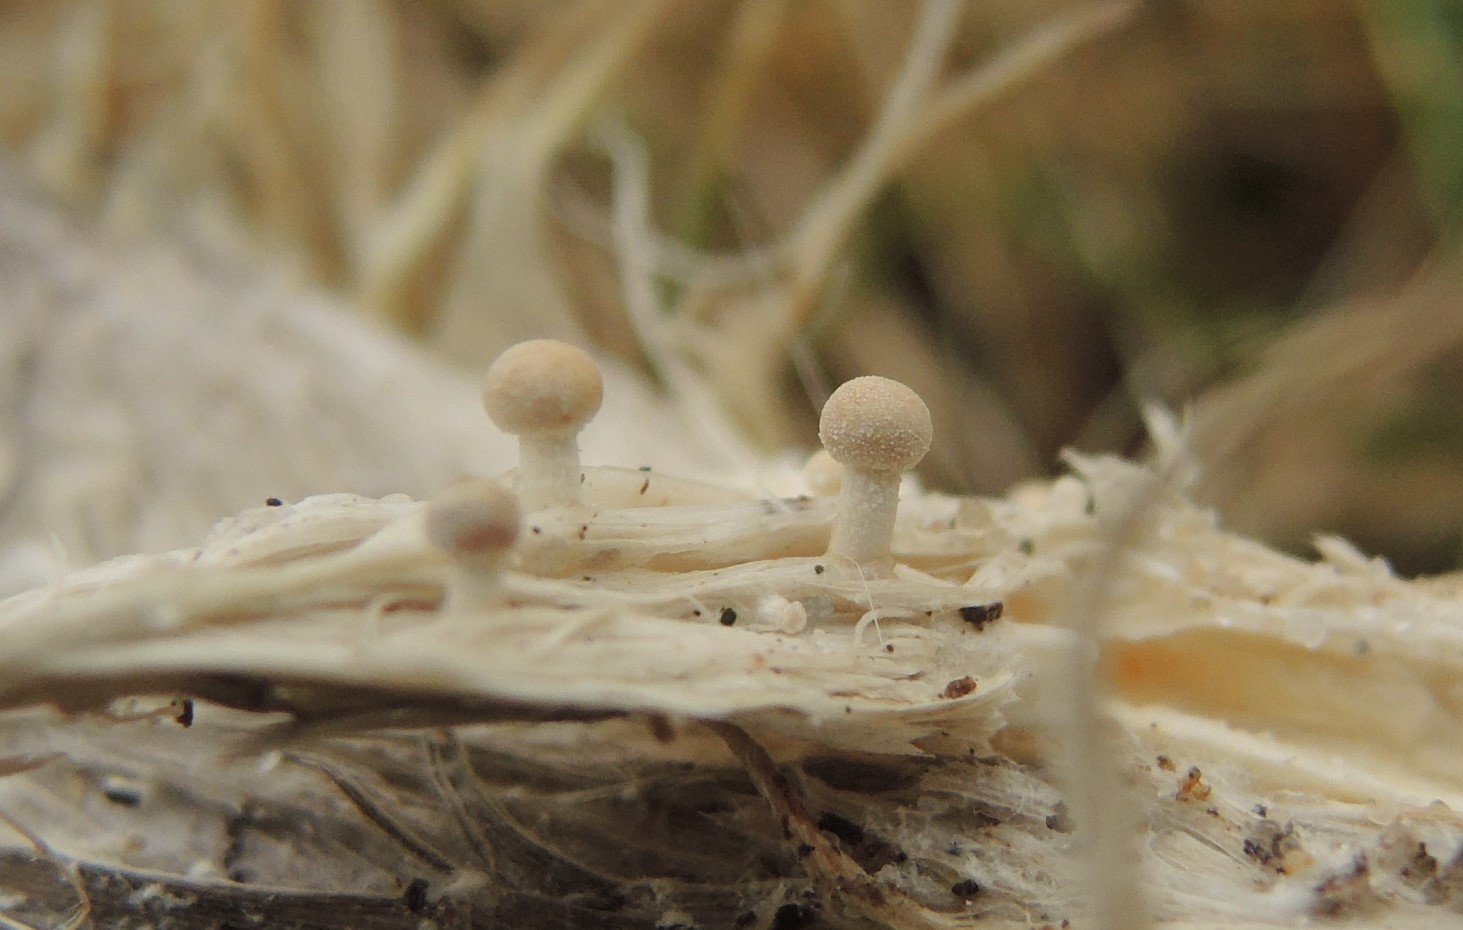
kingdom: Fungi
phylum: Ascomycota
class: Eurotiomycetes
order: Onygenales
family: Onygenaceae
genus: Onygena
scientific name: Onygena corvina
